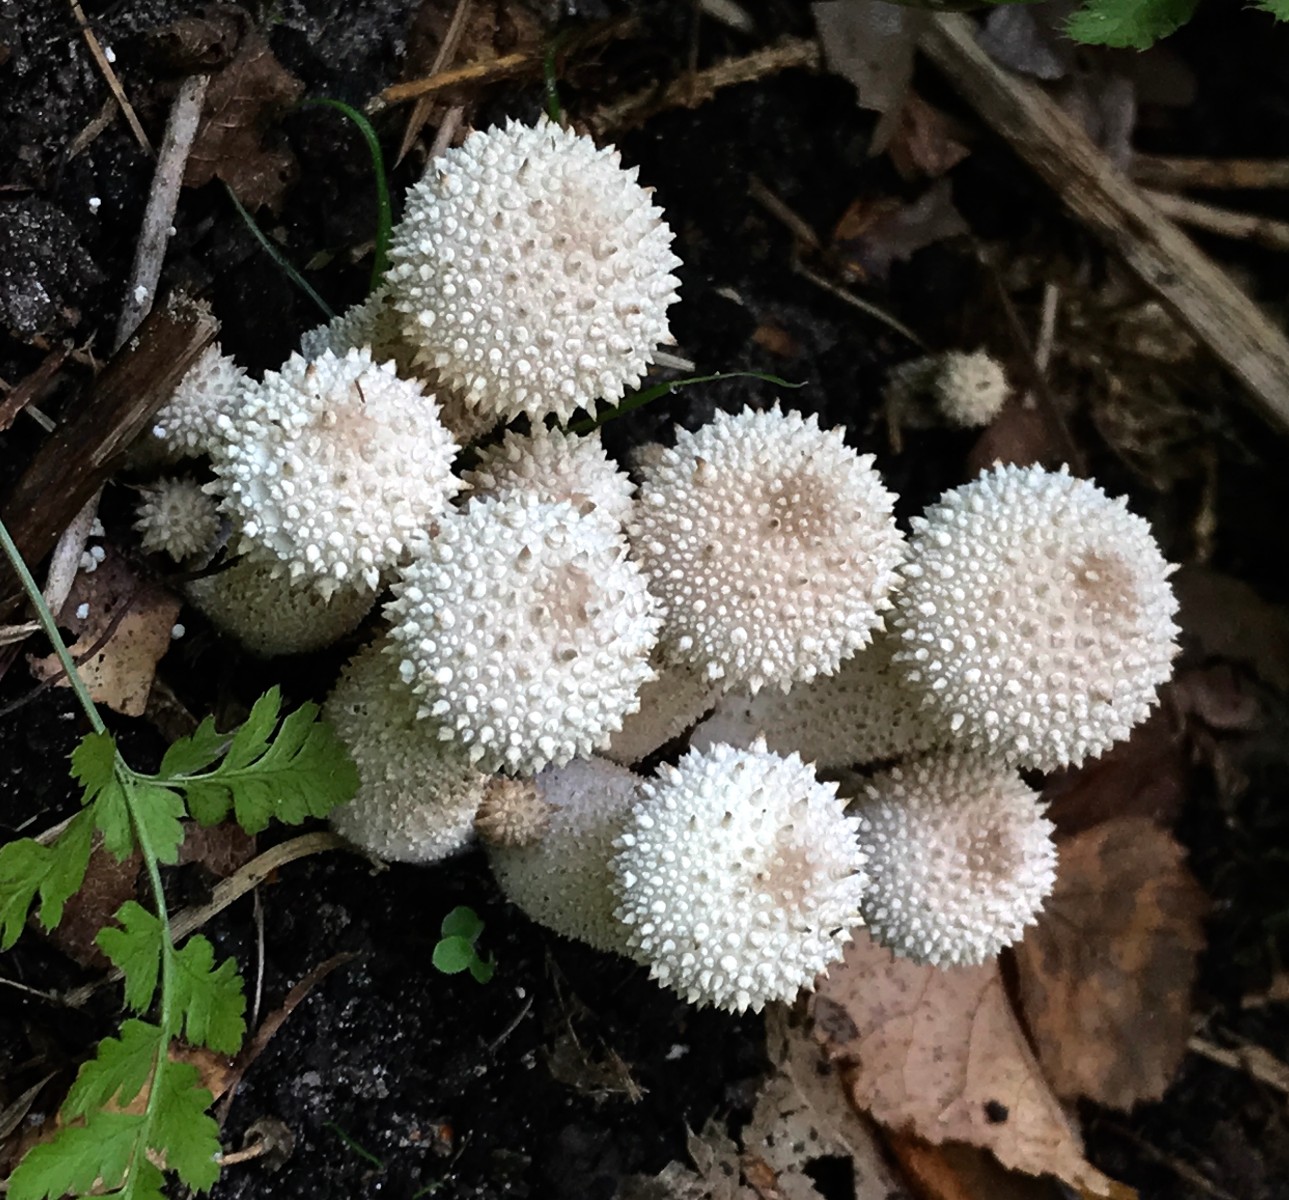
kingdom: Fungi
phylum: Basidiomycota
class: Agaricomycetes
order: Agaricales
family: Lycoperdaceae
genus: Lycoperdon
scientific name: Lycoperdon perlatum
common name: krystal-støvbold
